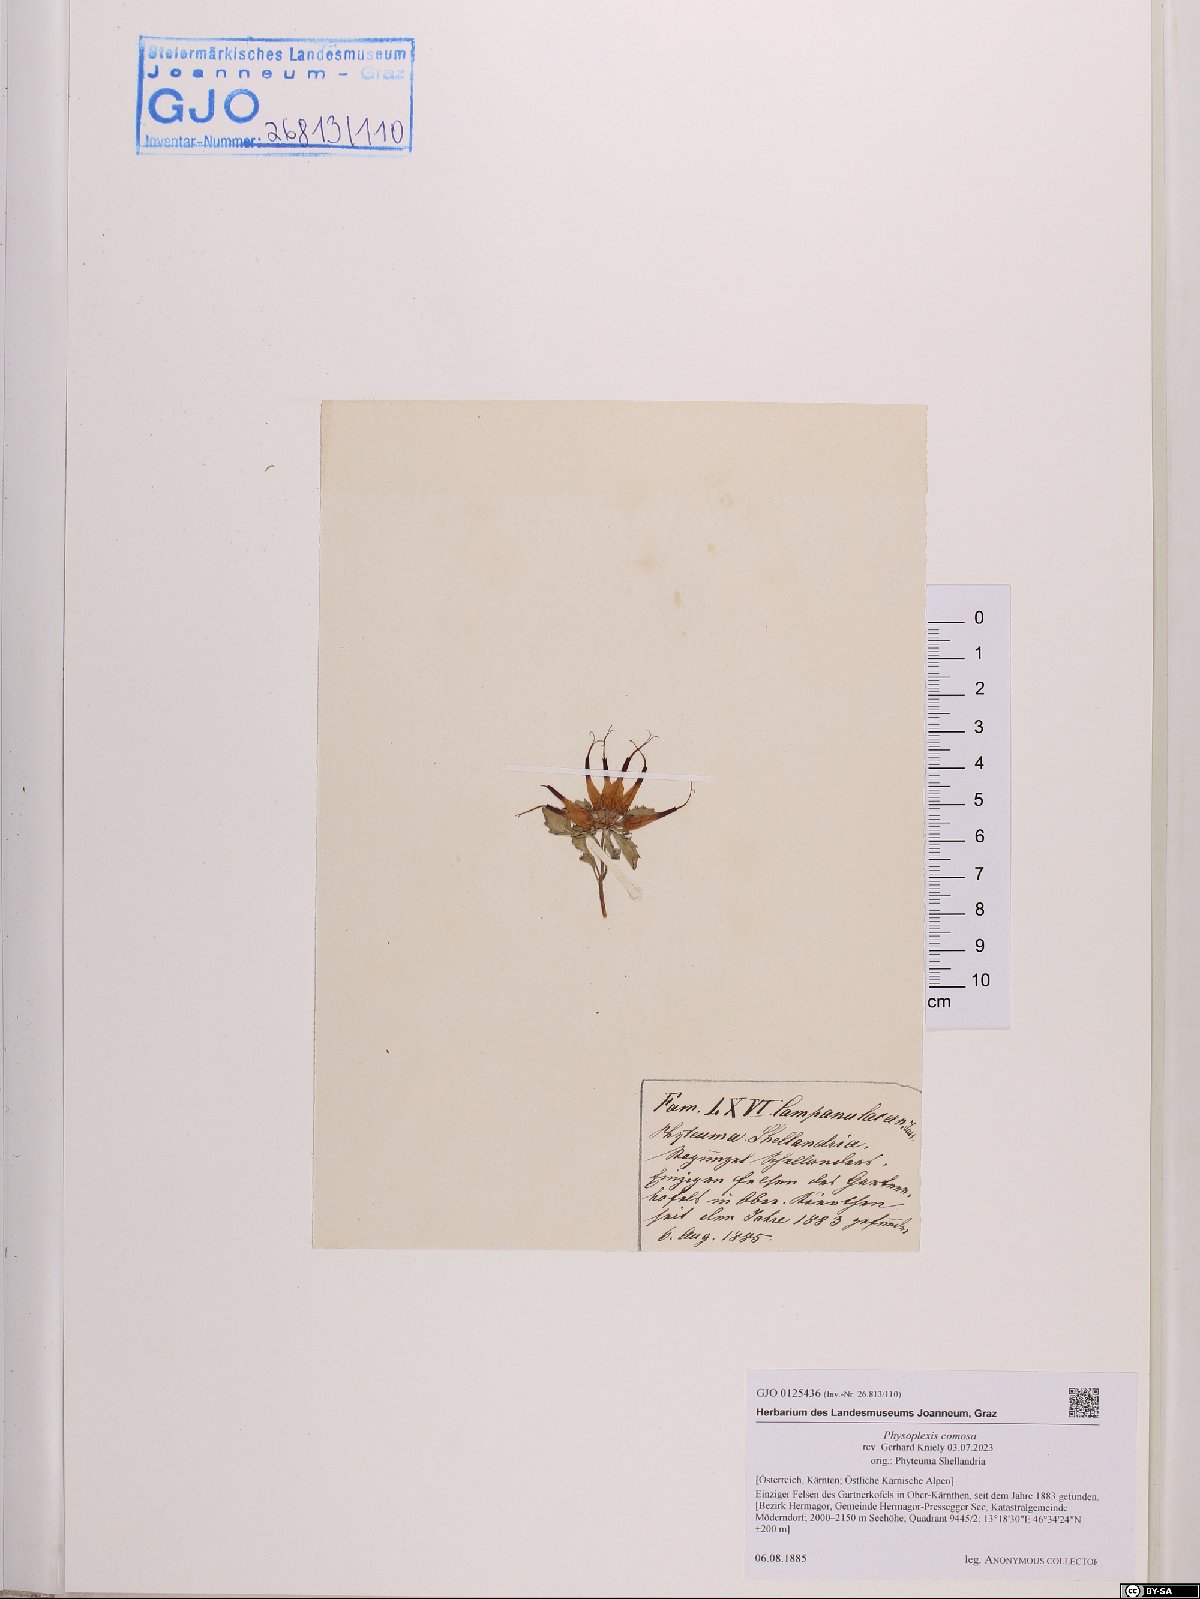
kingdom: Plantae
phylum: Tracheophyta
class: Magnoliopsida
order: Asterales
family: Campanulaceae
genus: Physoplexis
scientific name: Physoplexis comosa
